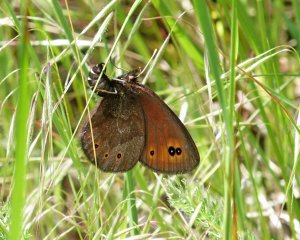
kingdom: Animalia
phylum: Arthropoda
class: Insecta
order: Lepidoptera
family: Nymphalidae
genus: Erebia
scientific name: Erebia epipsodea
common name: Common Alpine
